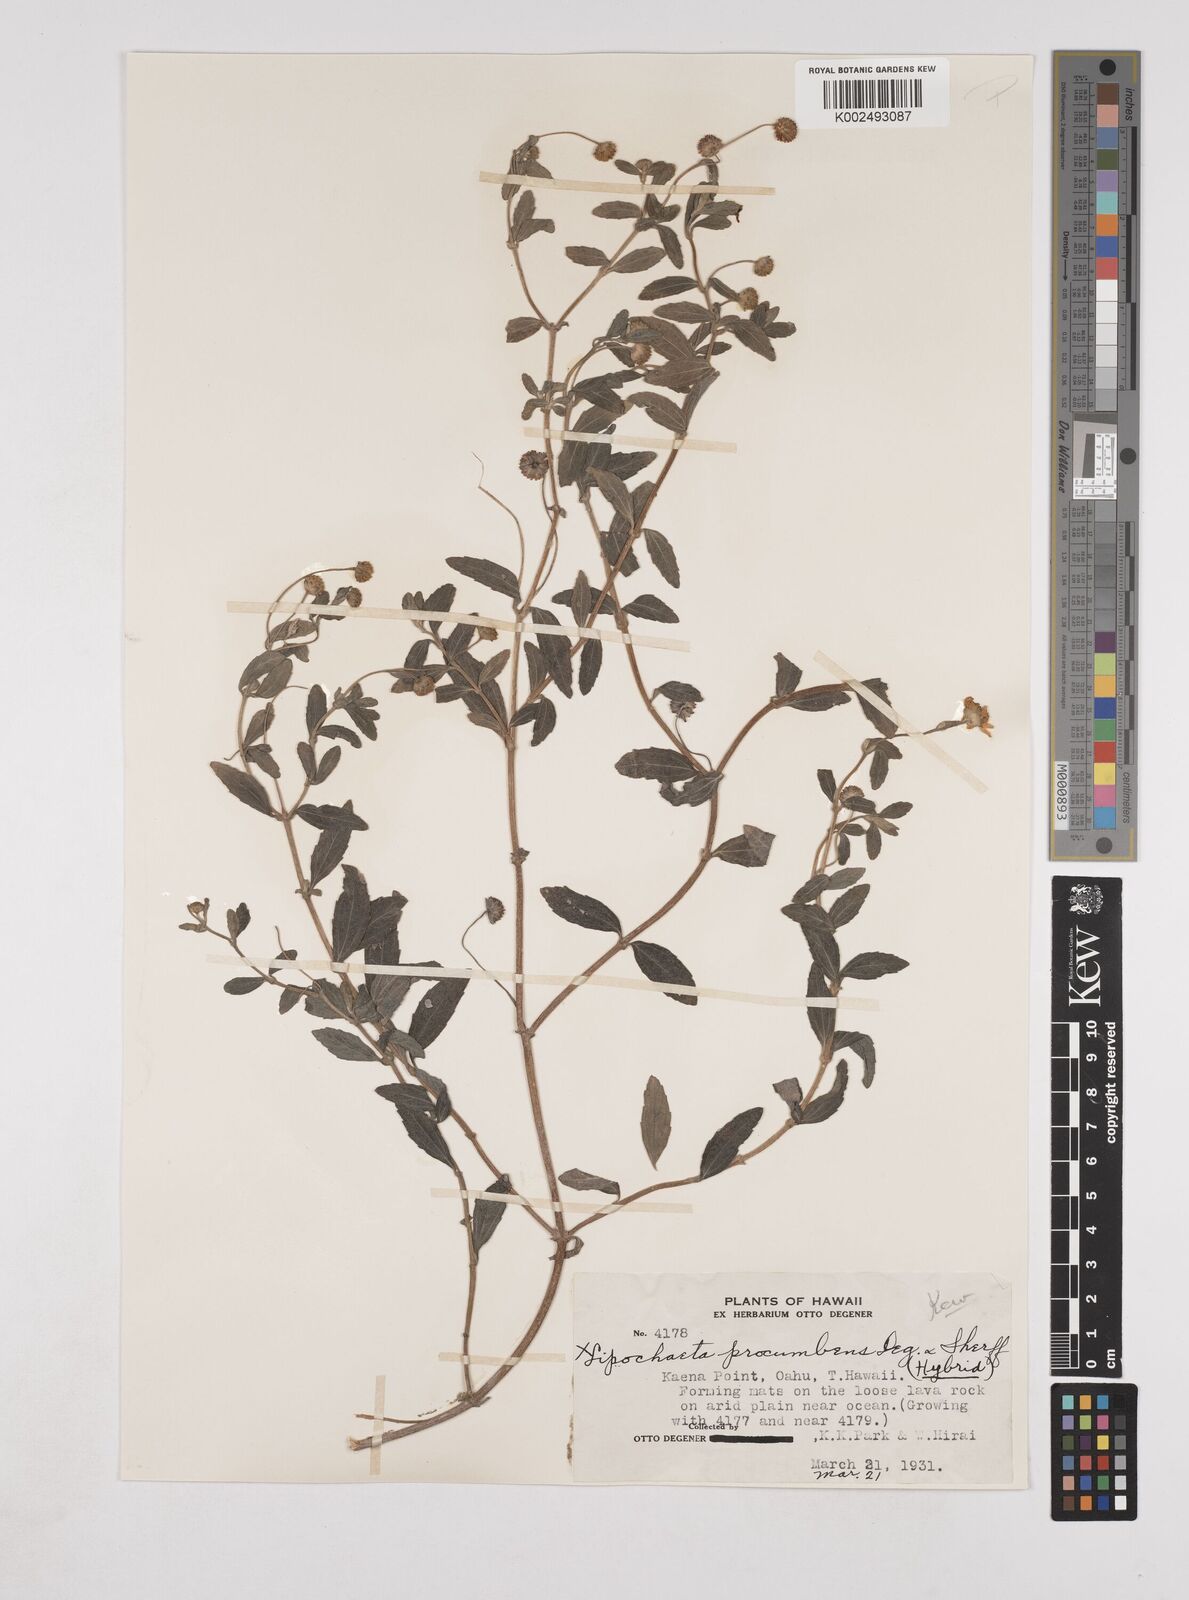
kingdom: Plantae
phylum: Tracheophyta
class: Magnoliopsida
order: Asterales
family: Asteraceae
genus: Lipochaeta
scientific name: Lipochaeta procumbens
